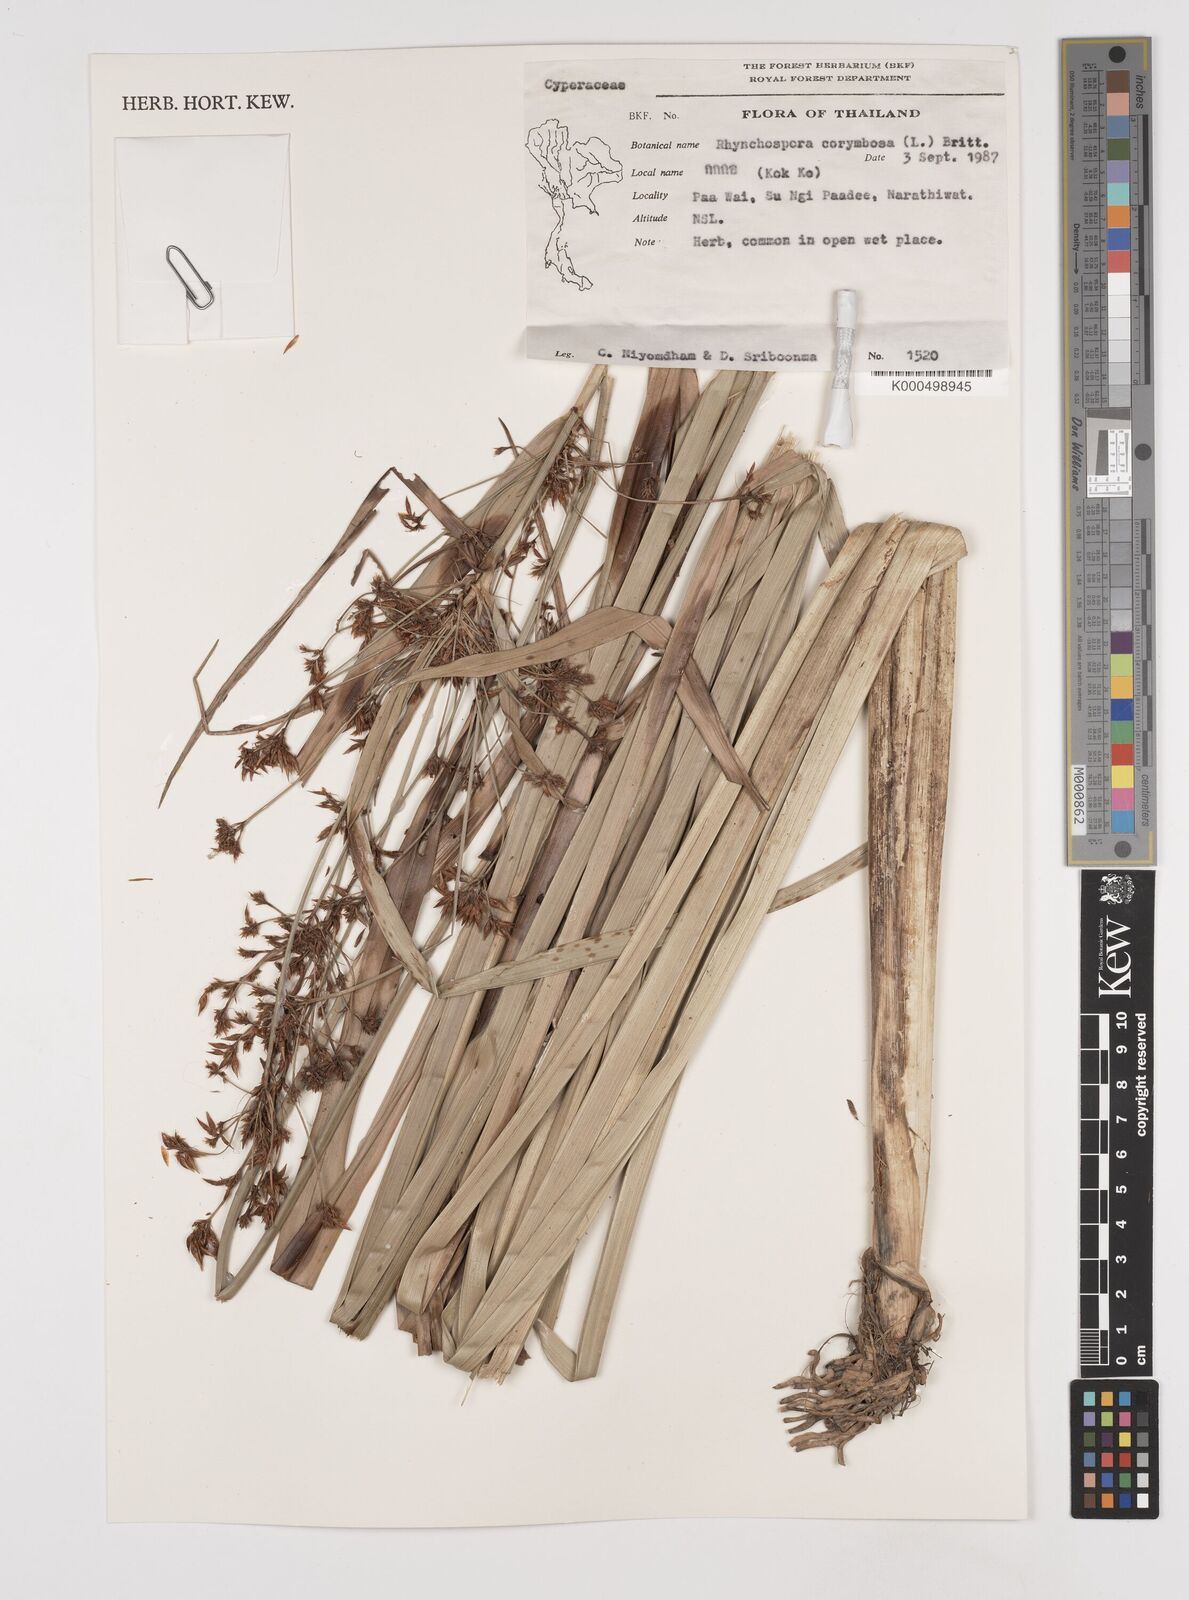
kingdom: Plantae
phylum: Tracheophyta
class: Liliopsida
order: Poales
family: Cyperaceae
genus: Rhynchospora
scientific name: Rhynchospora corymbosa
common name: Golden beak sedge
